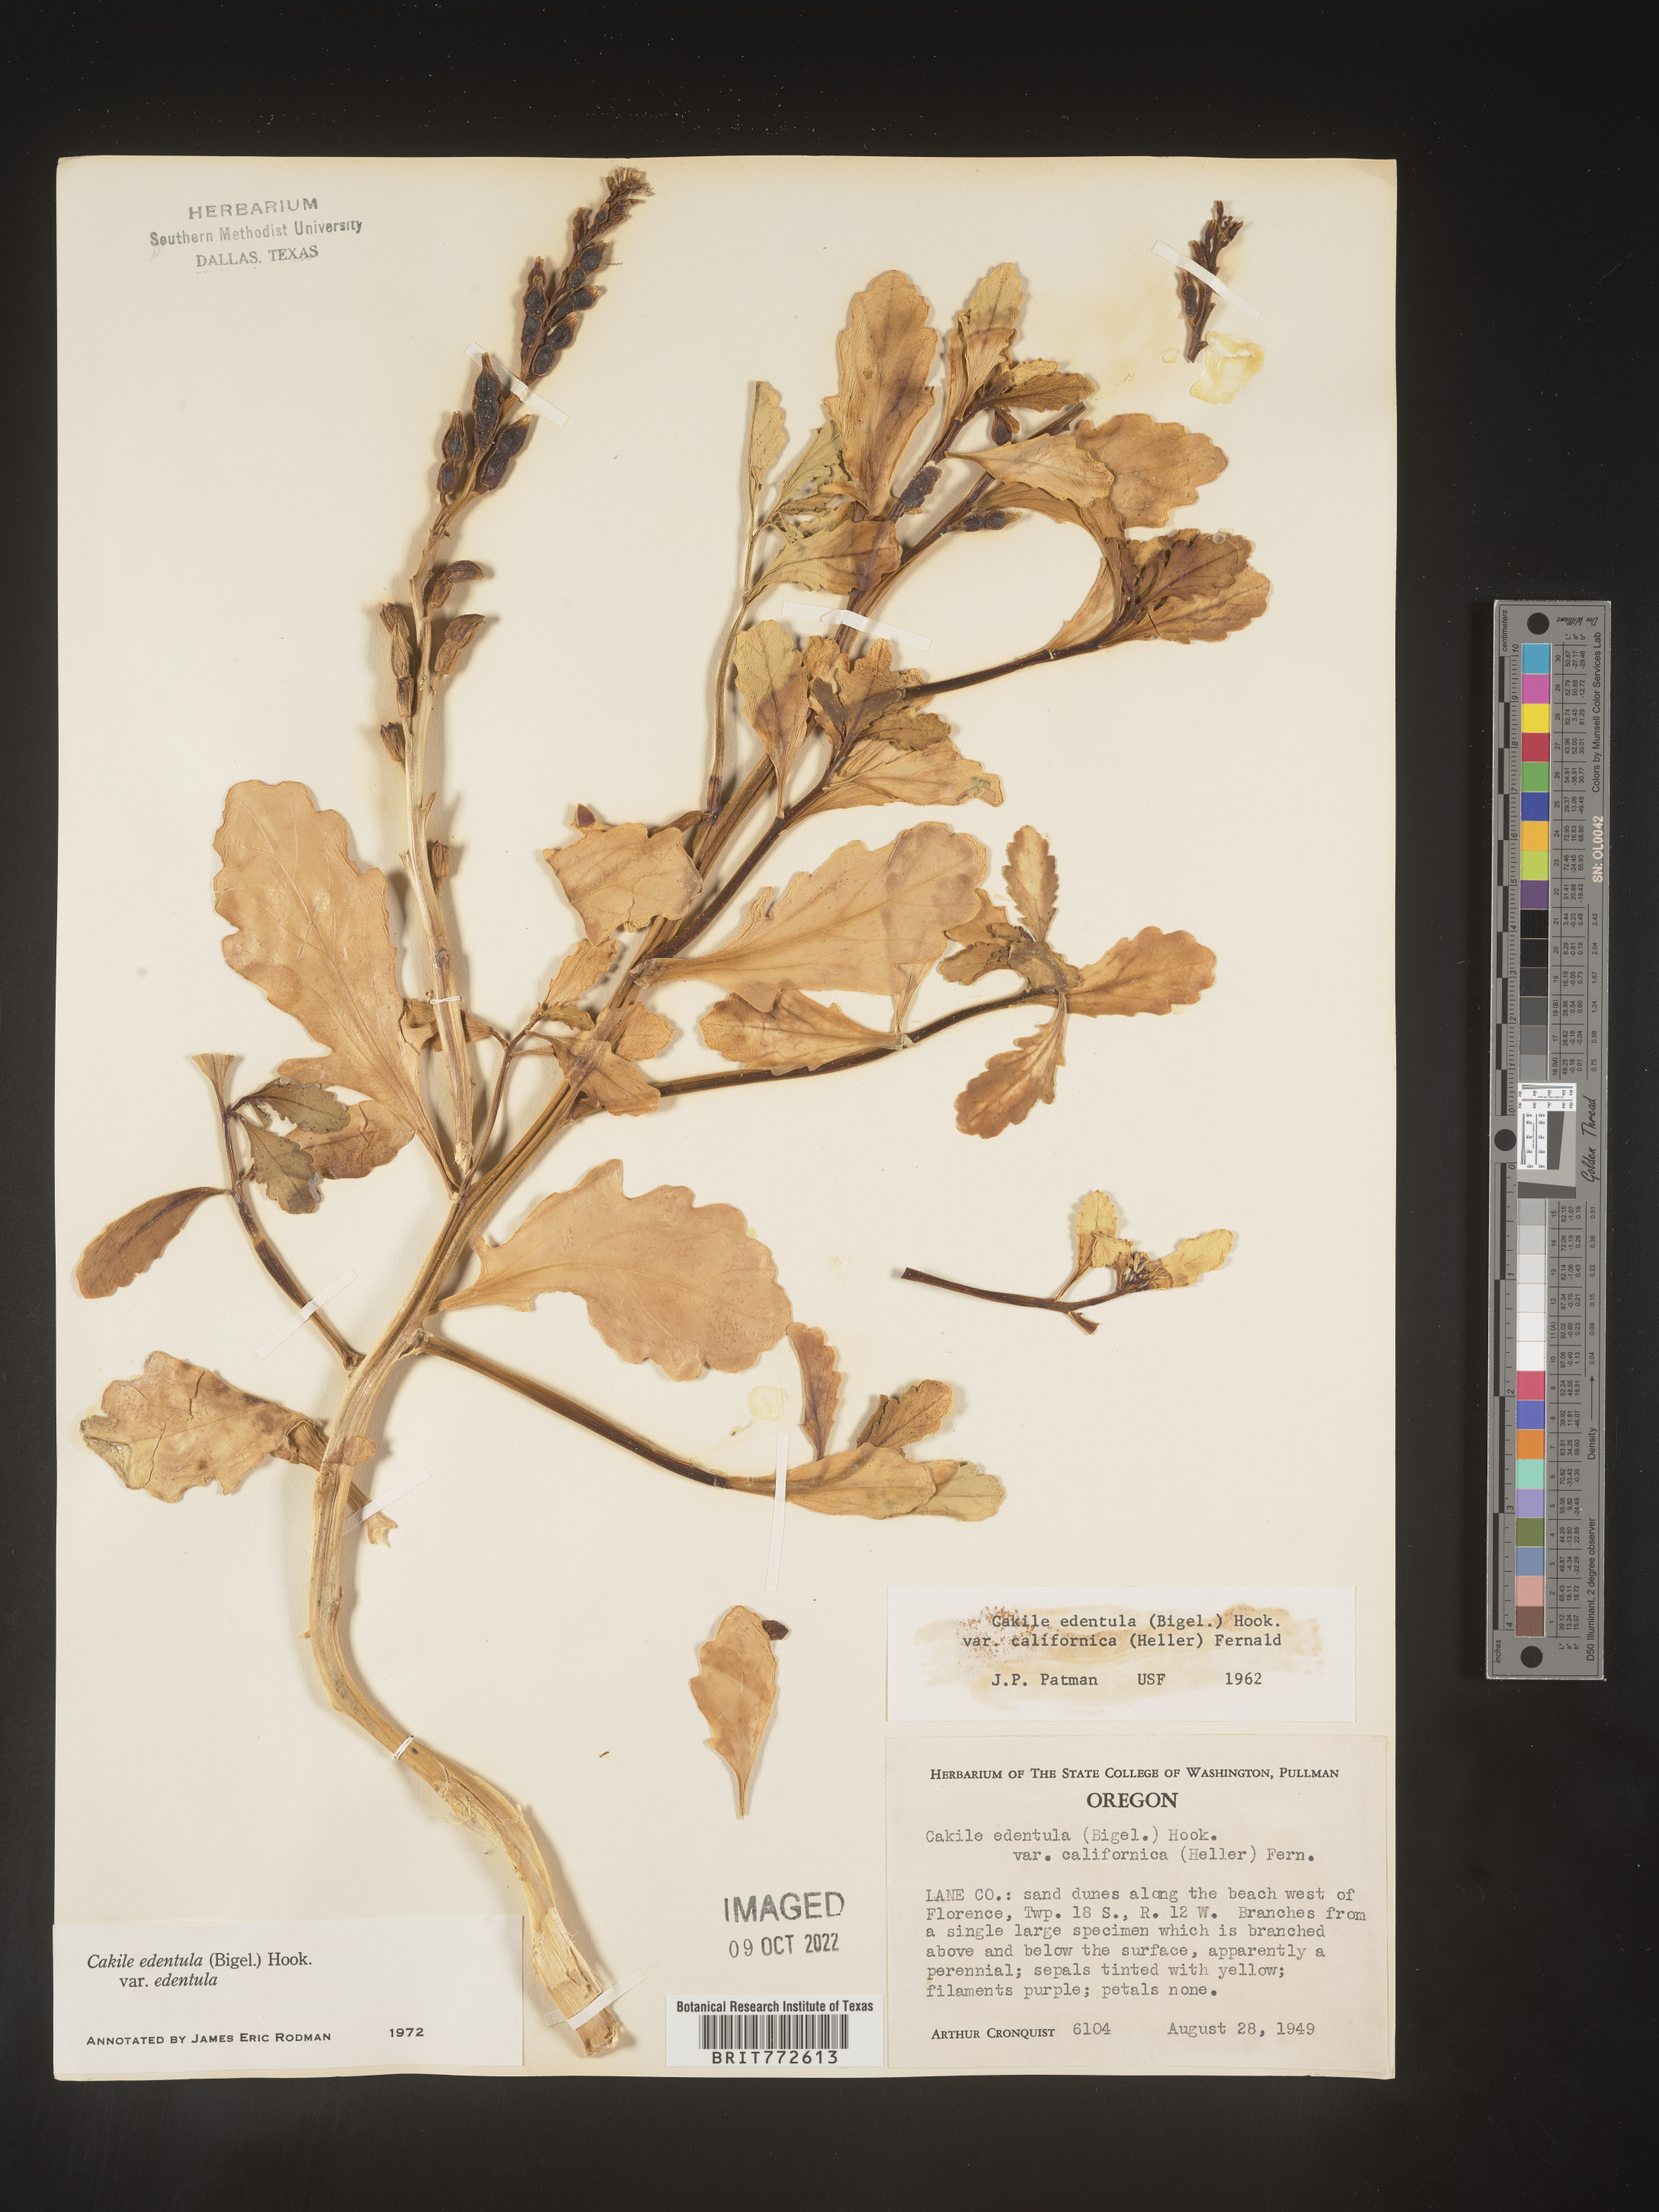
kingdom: Plantae
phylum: Tracheophyta
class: Magnoliopsida
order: Brassicales
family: Brassicaceae
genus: Cakile
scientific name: Cakile edentula
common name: American sea rocket
